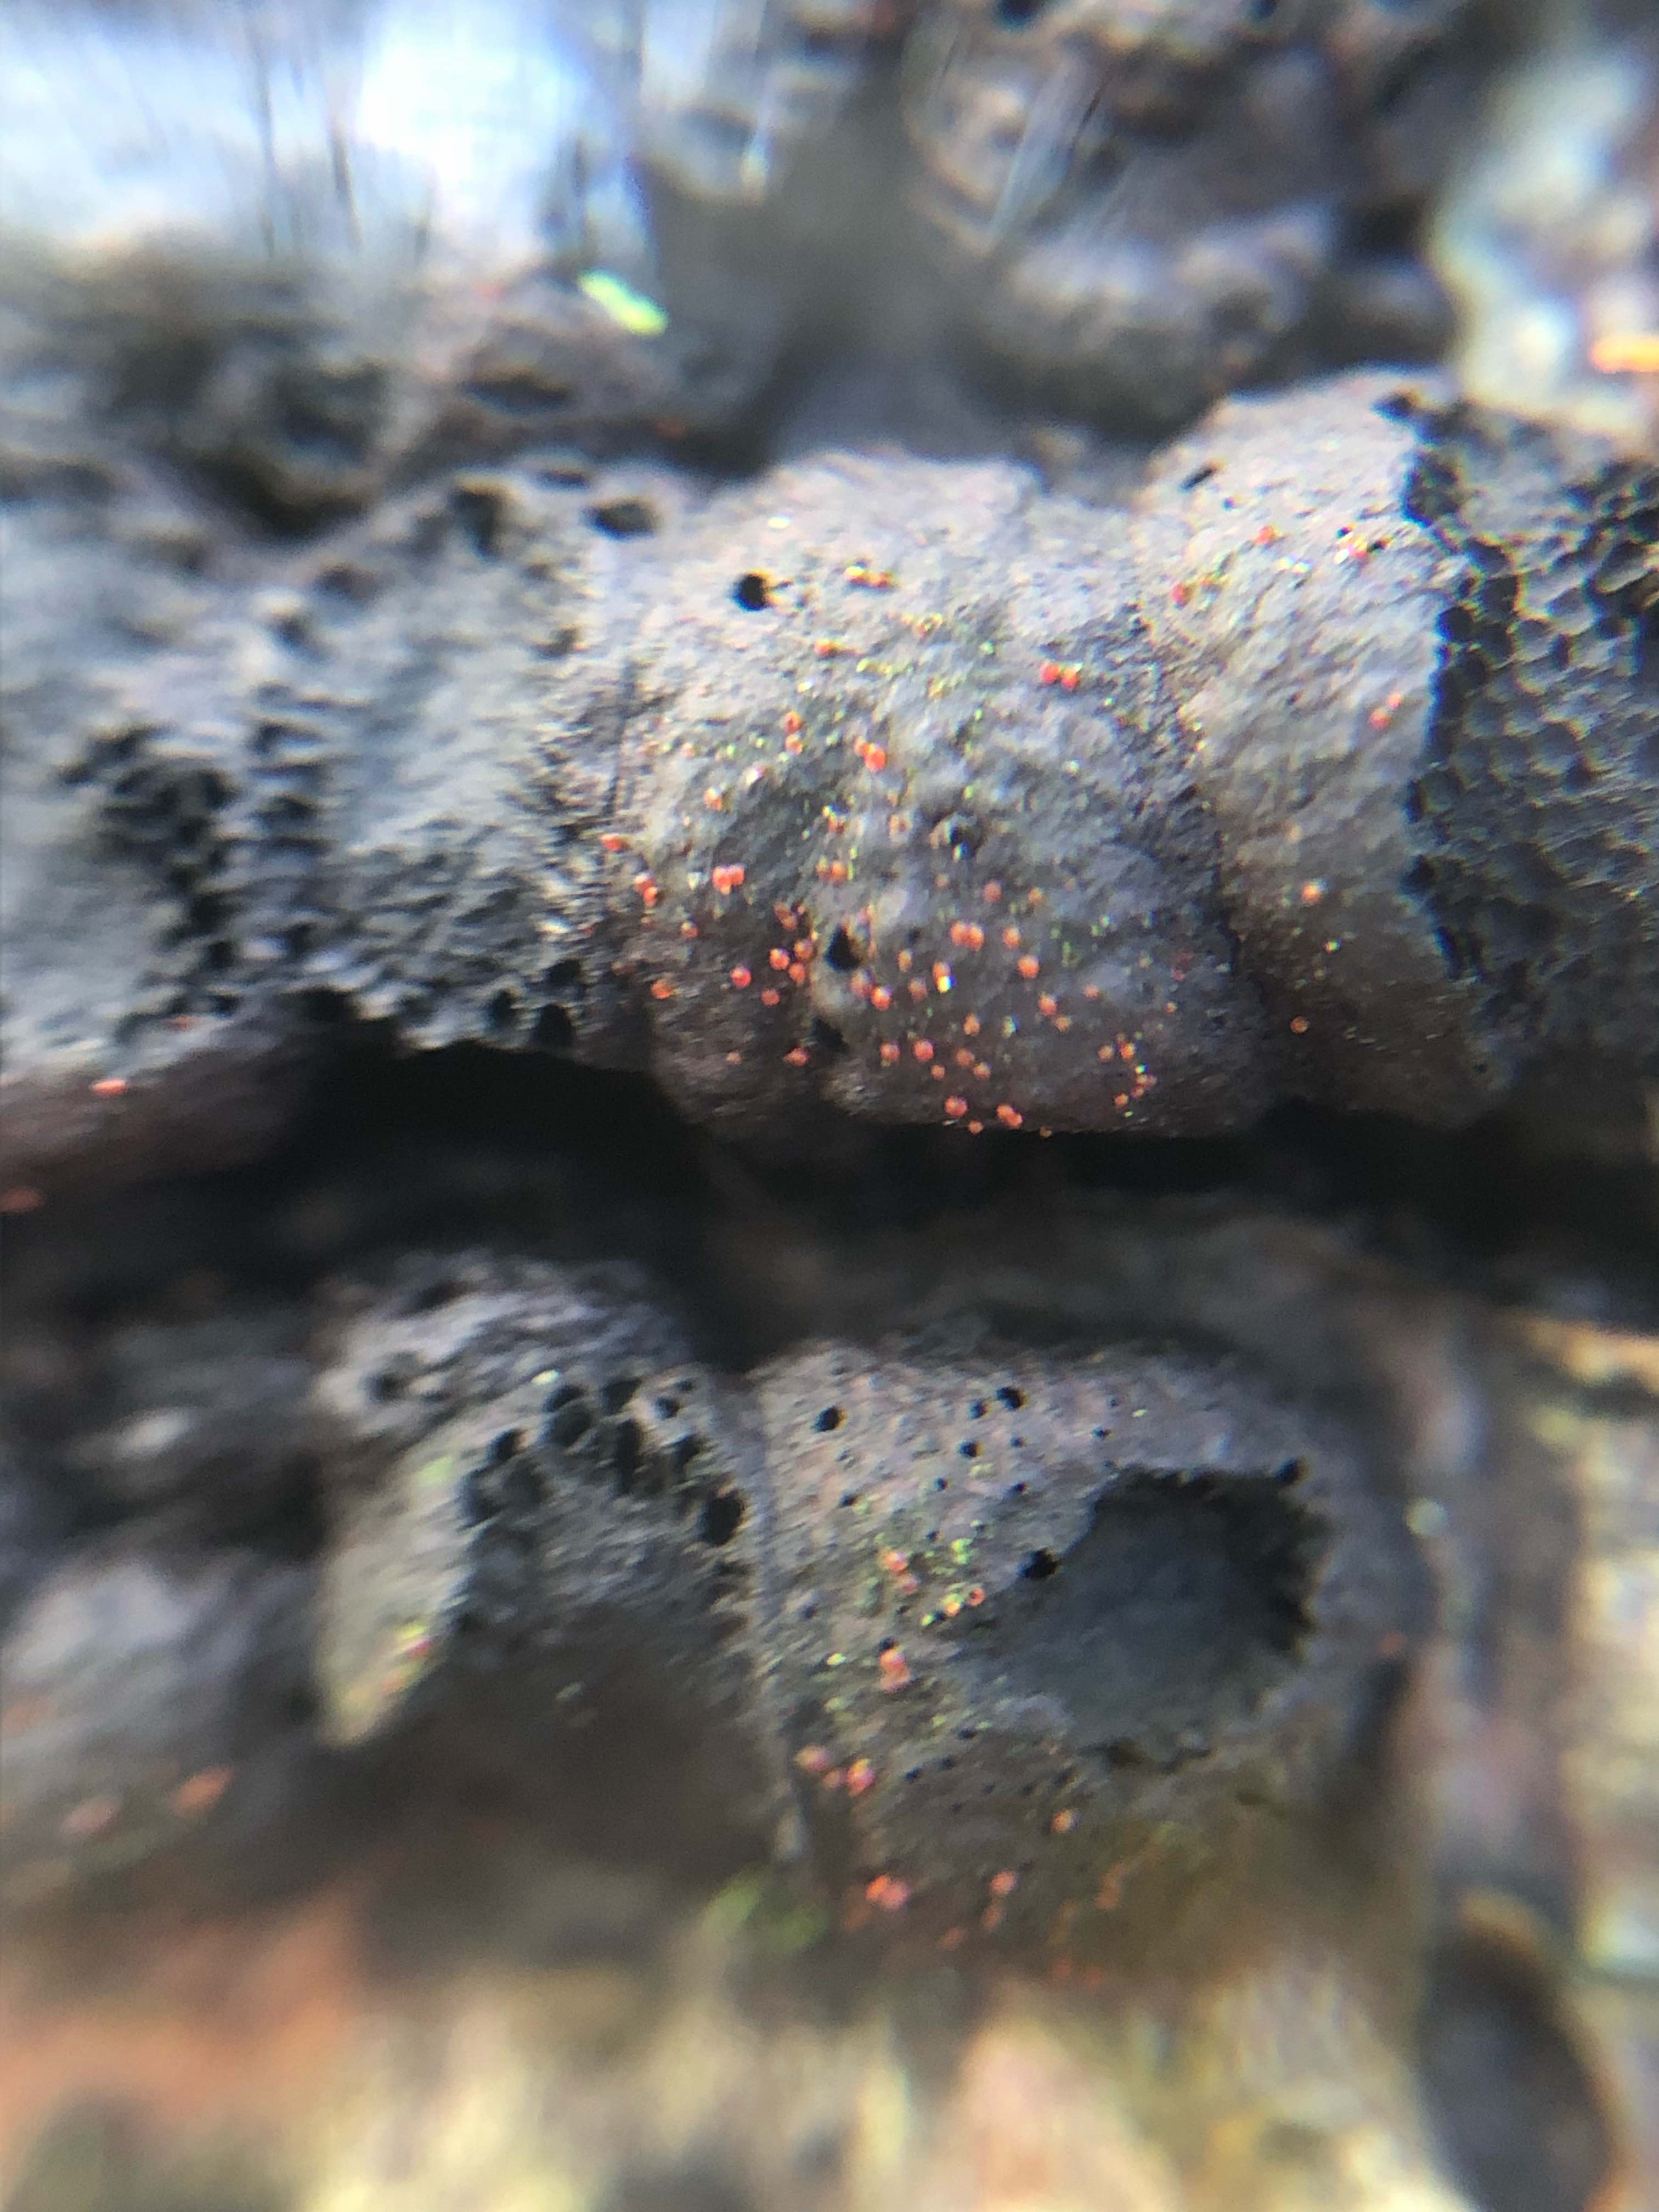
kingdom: Fungi
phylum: Ascomycota
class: Sordariomycetes
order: Hypocreales
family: Nectriaceae
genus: Cosmospora
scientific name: Cosmospora arxii
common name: kuljordbær-cinnobersvamp
